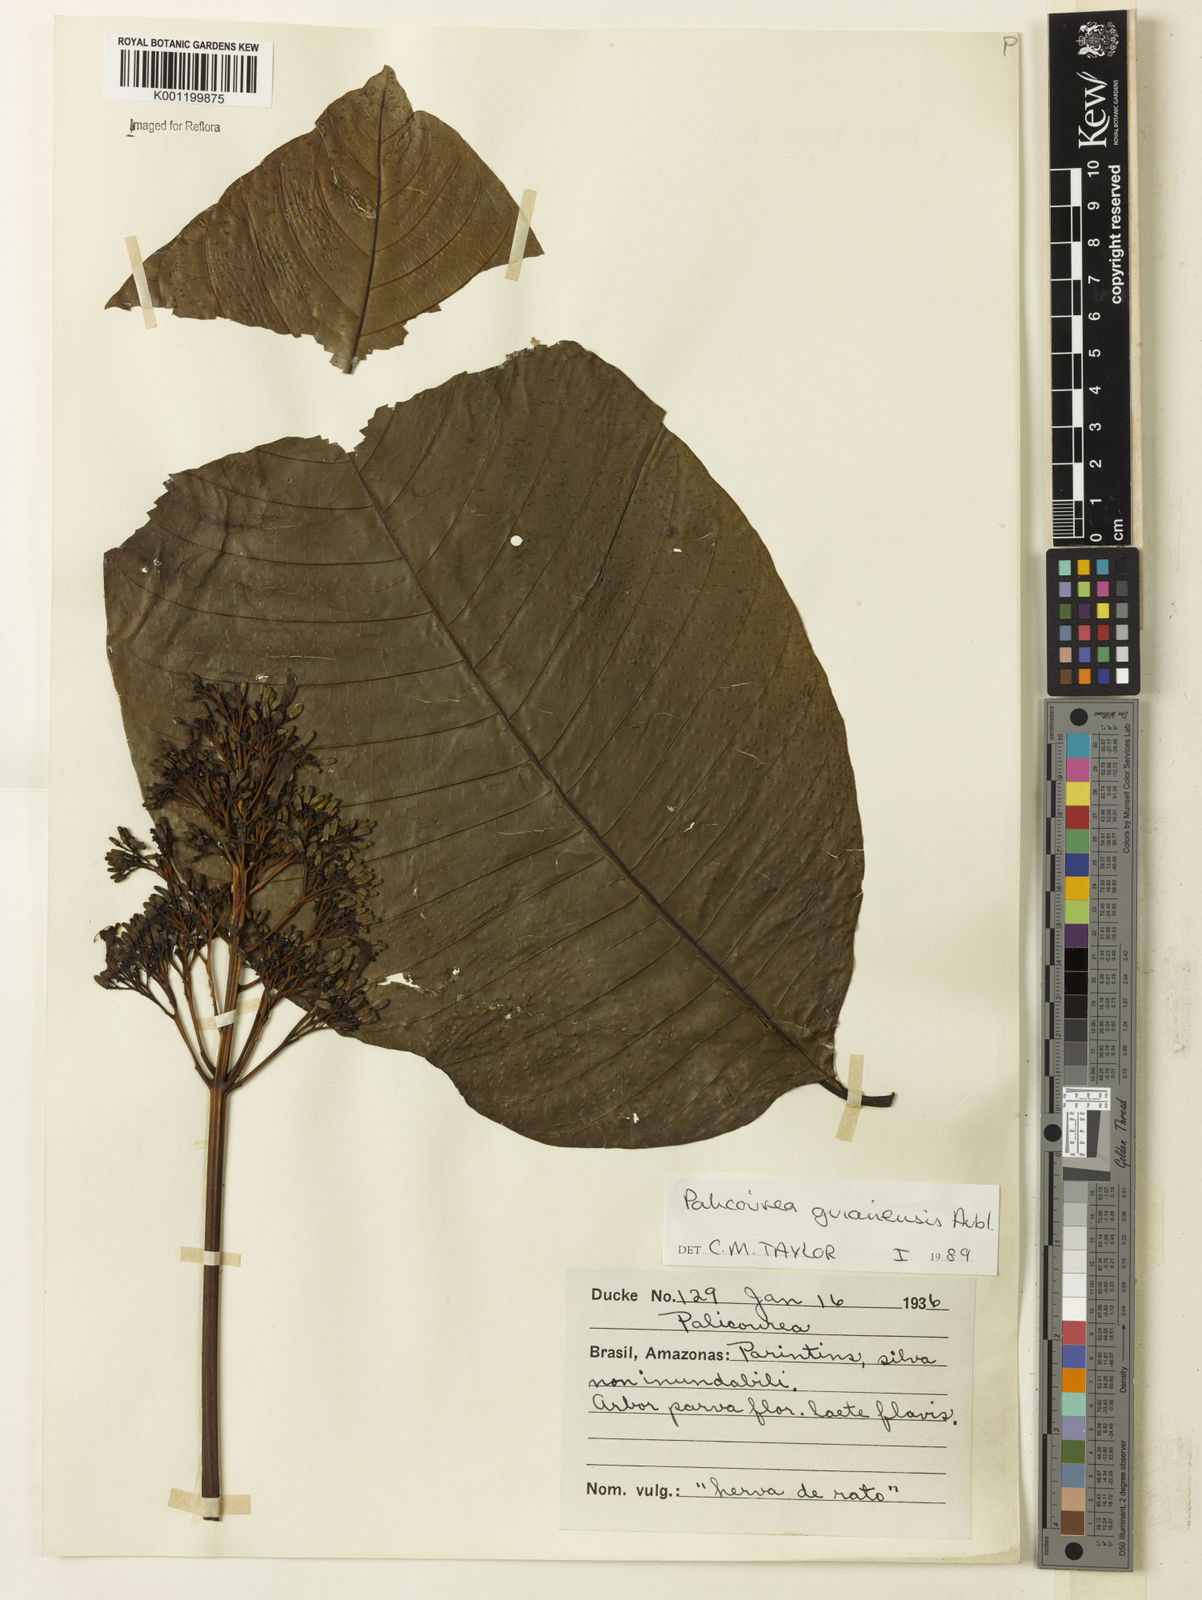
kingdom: Plantae
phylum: Tracheophyta
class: Magnoliopsida
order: Gentianales
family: Rubiaceae
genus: Palicourea
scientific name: Palicourea guianensis
